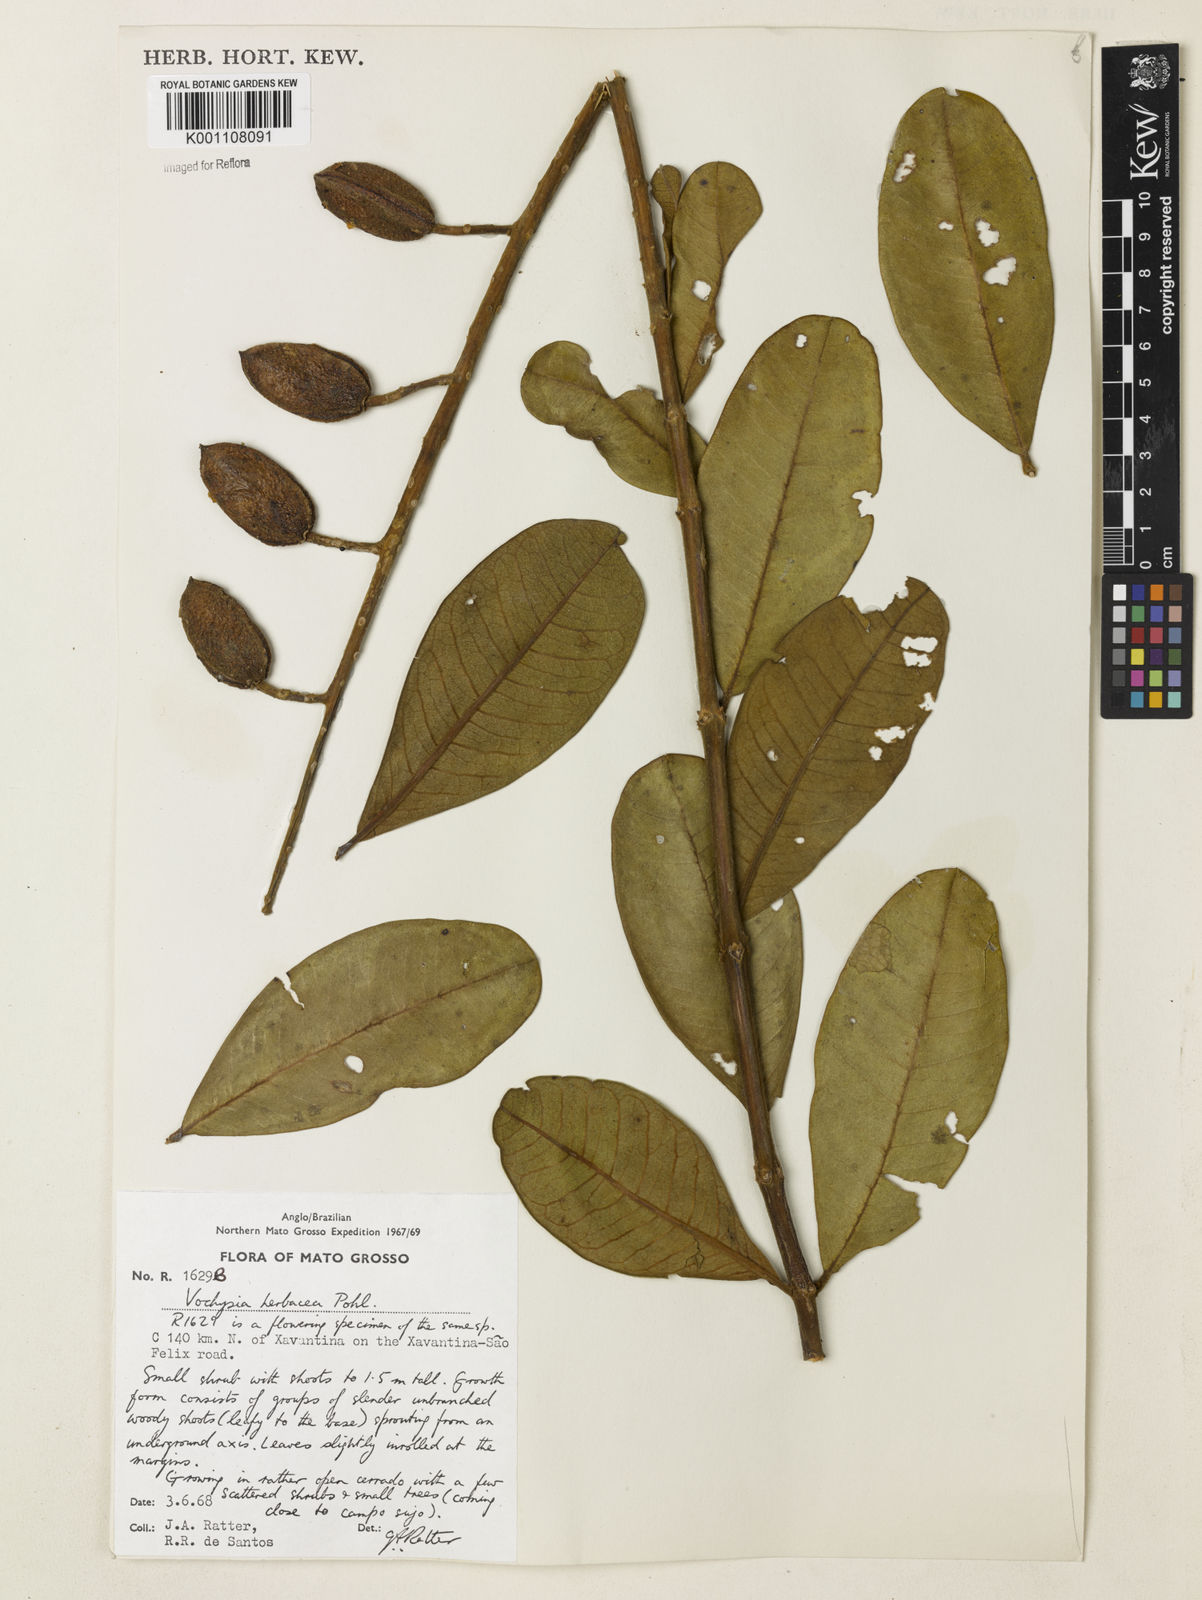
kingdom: Plantae
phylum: Tracheophyta
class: Magnoliopsida
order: Myrtales
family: Vochysiaceae
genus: Vochysia
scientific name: Vochysia herbacea
